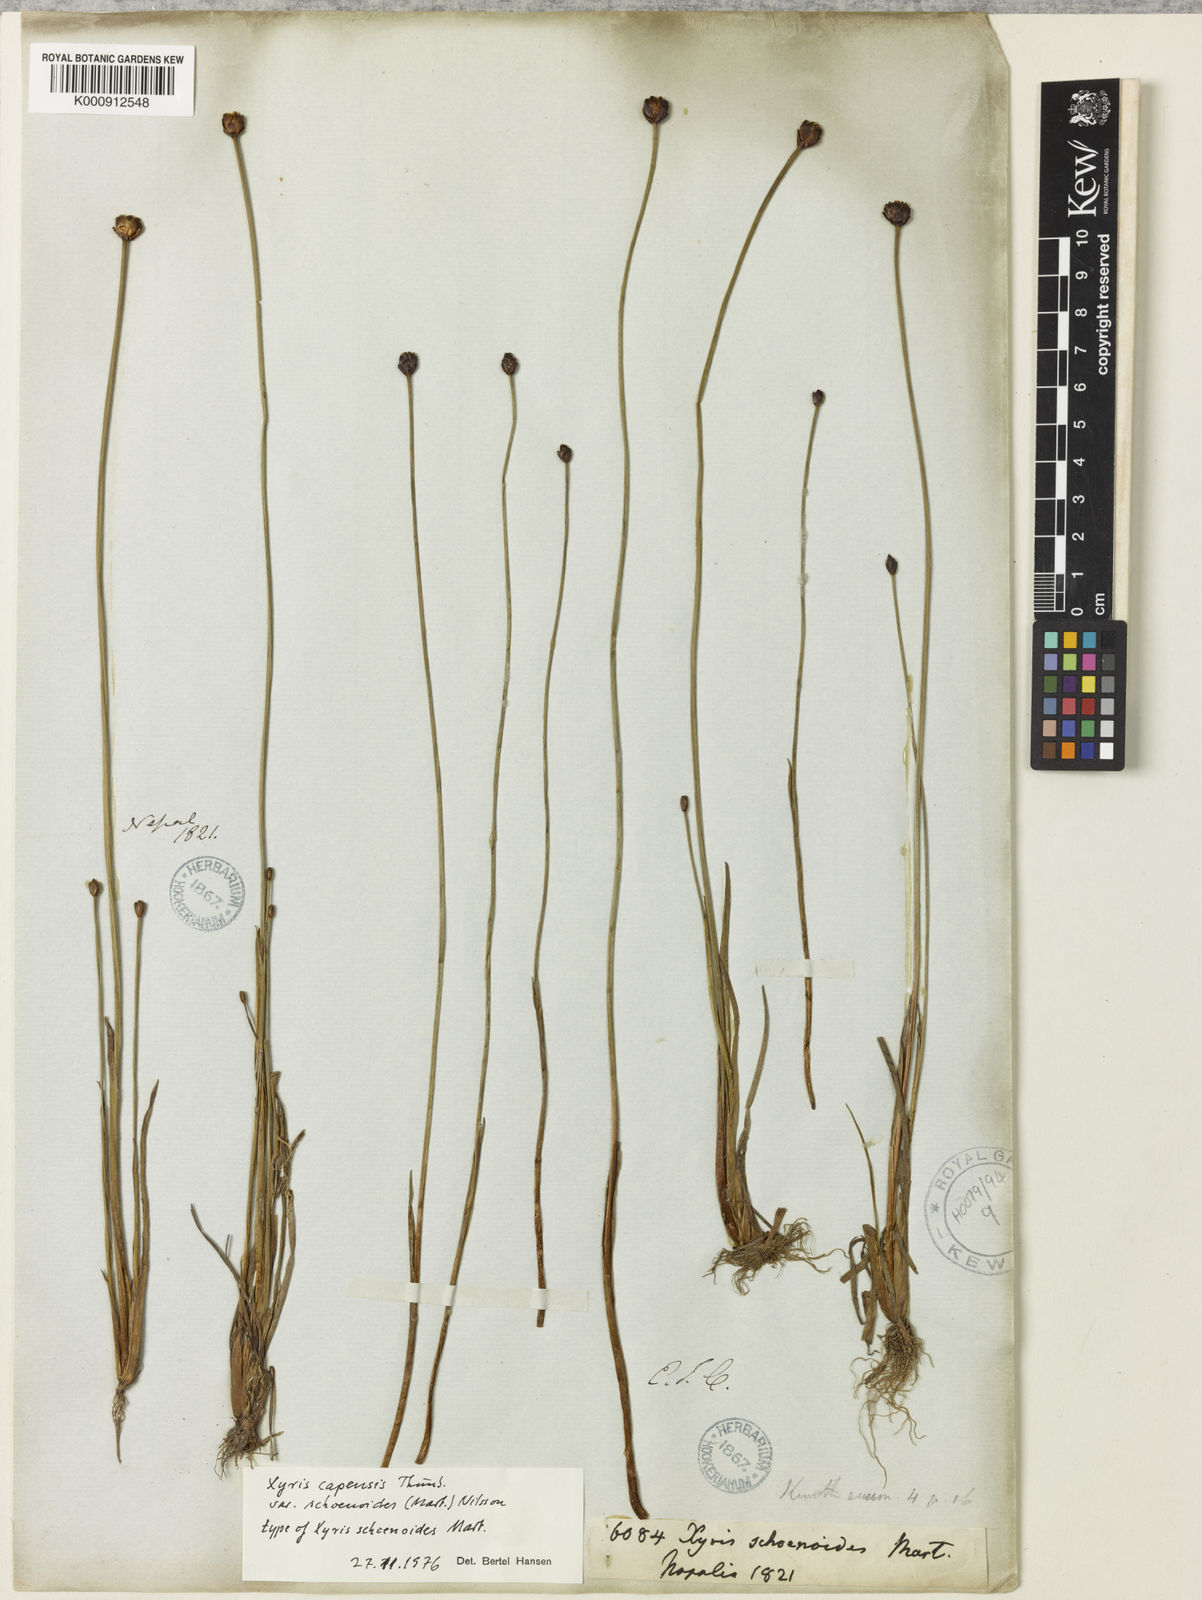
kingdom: Plantae
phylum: Tracheophyta
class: Liliopsida
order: Poales
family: Xyridaceae
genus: Xyris
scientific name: Xyris congensis
